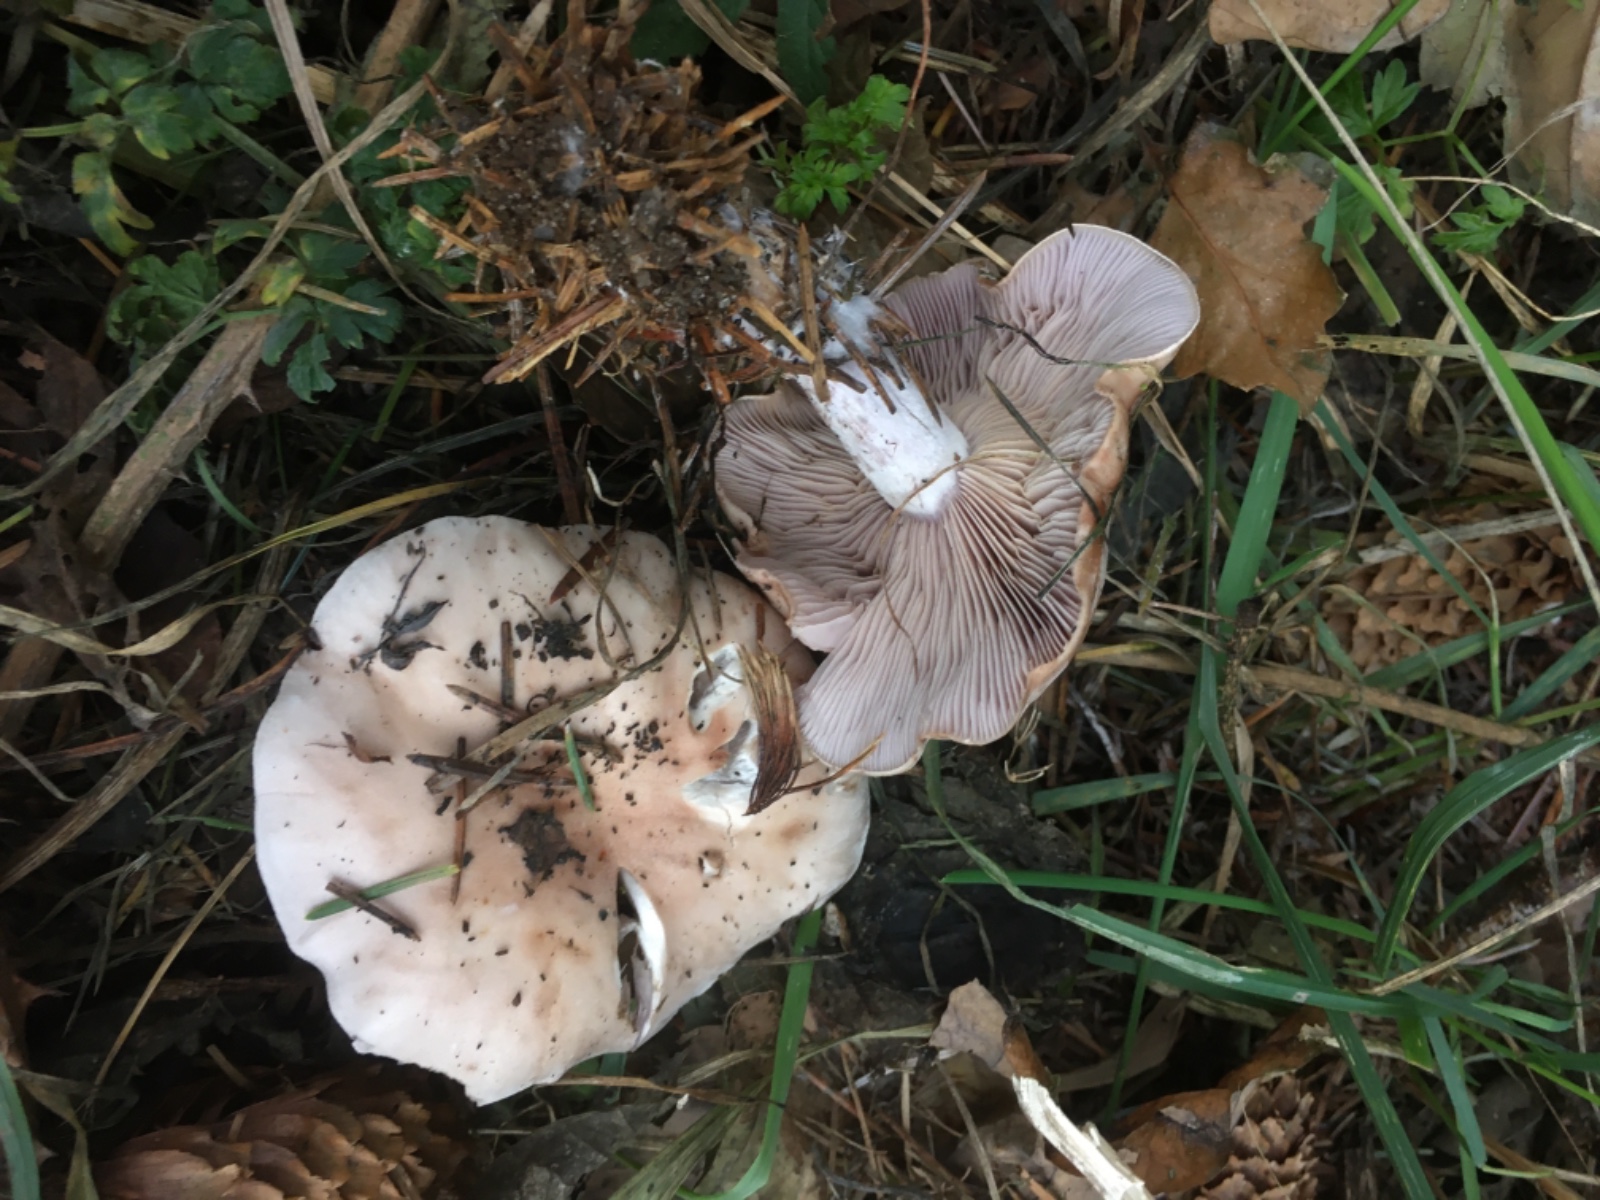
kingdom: Fungi
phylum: Basidiomycota
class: Agaricomycetes
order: Agaricales
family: Tricholomataceae
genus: Lepista
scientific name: Lepista
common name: hekseringshat
